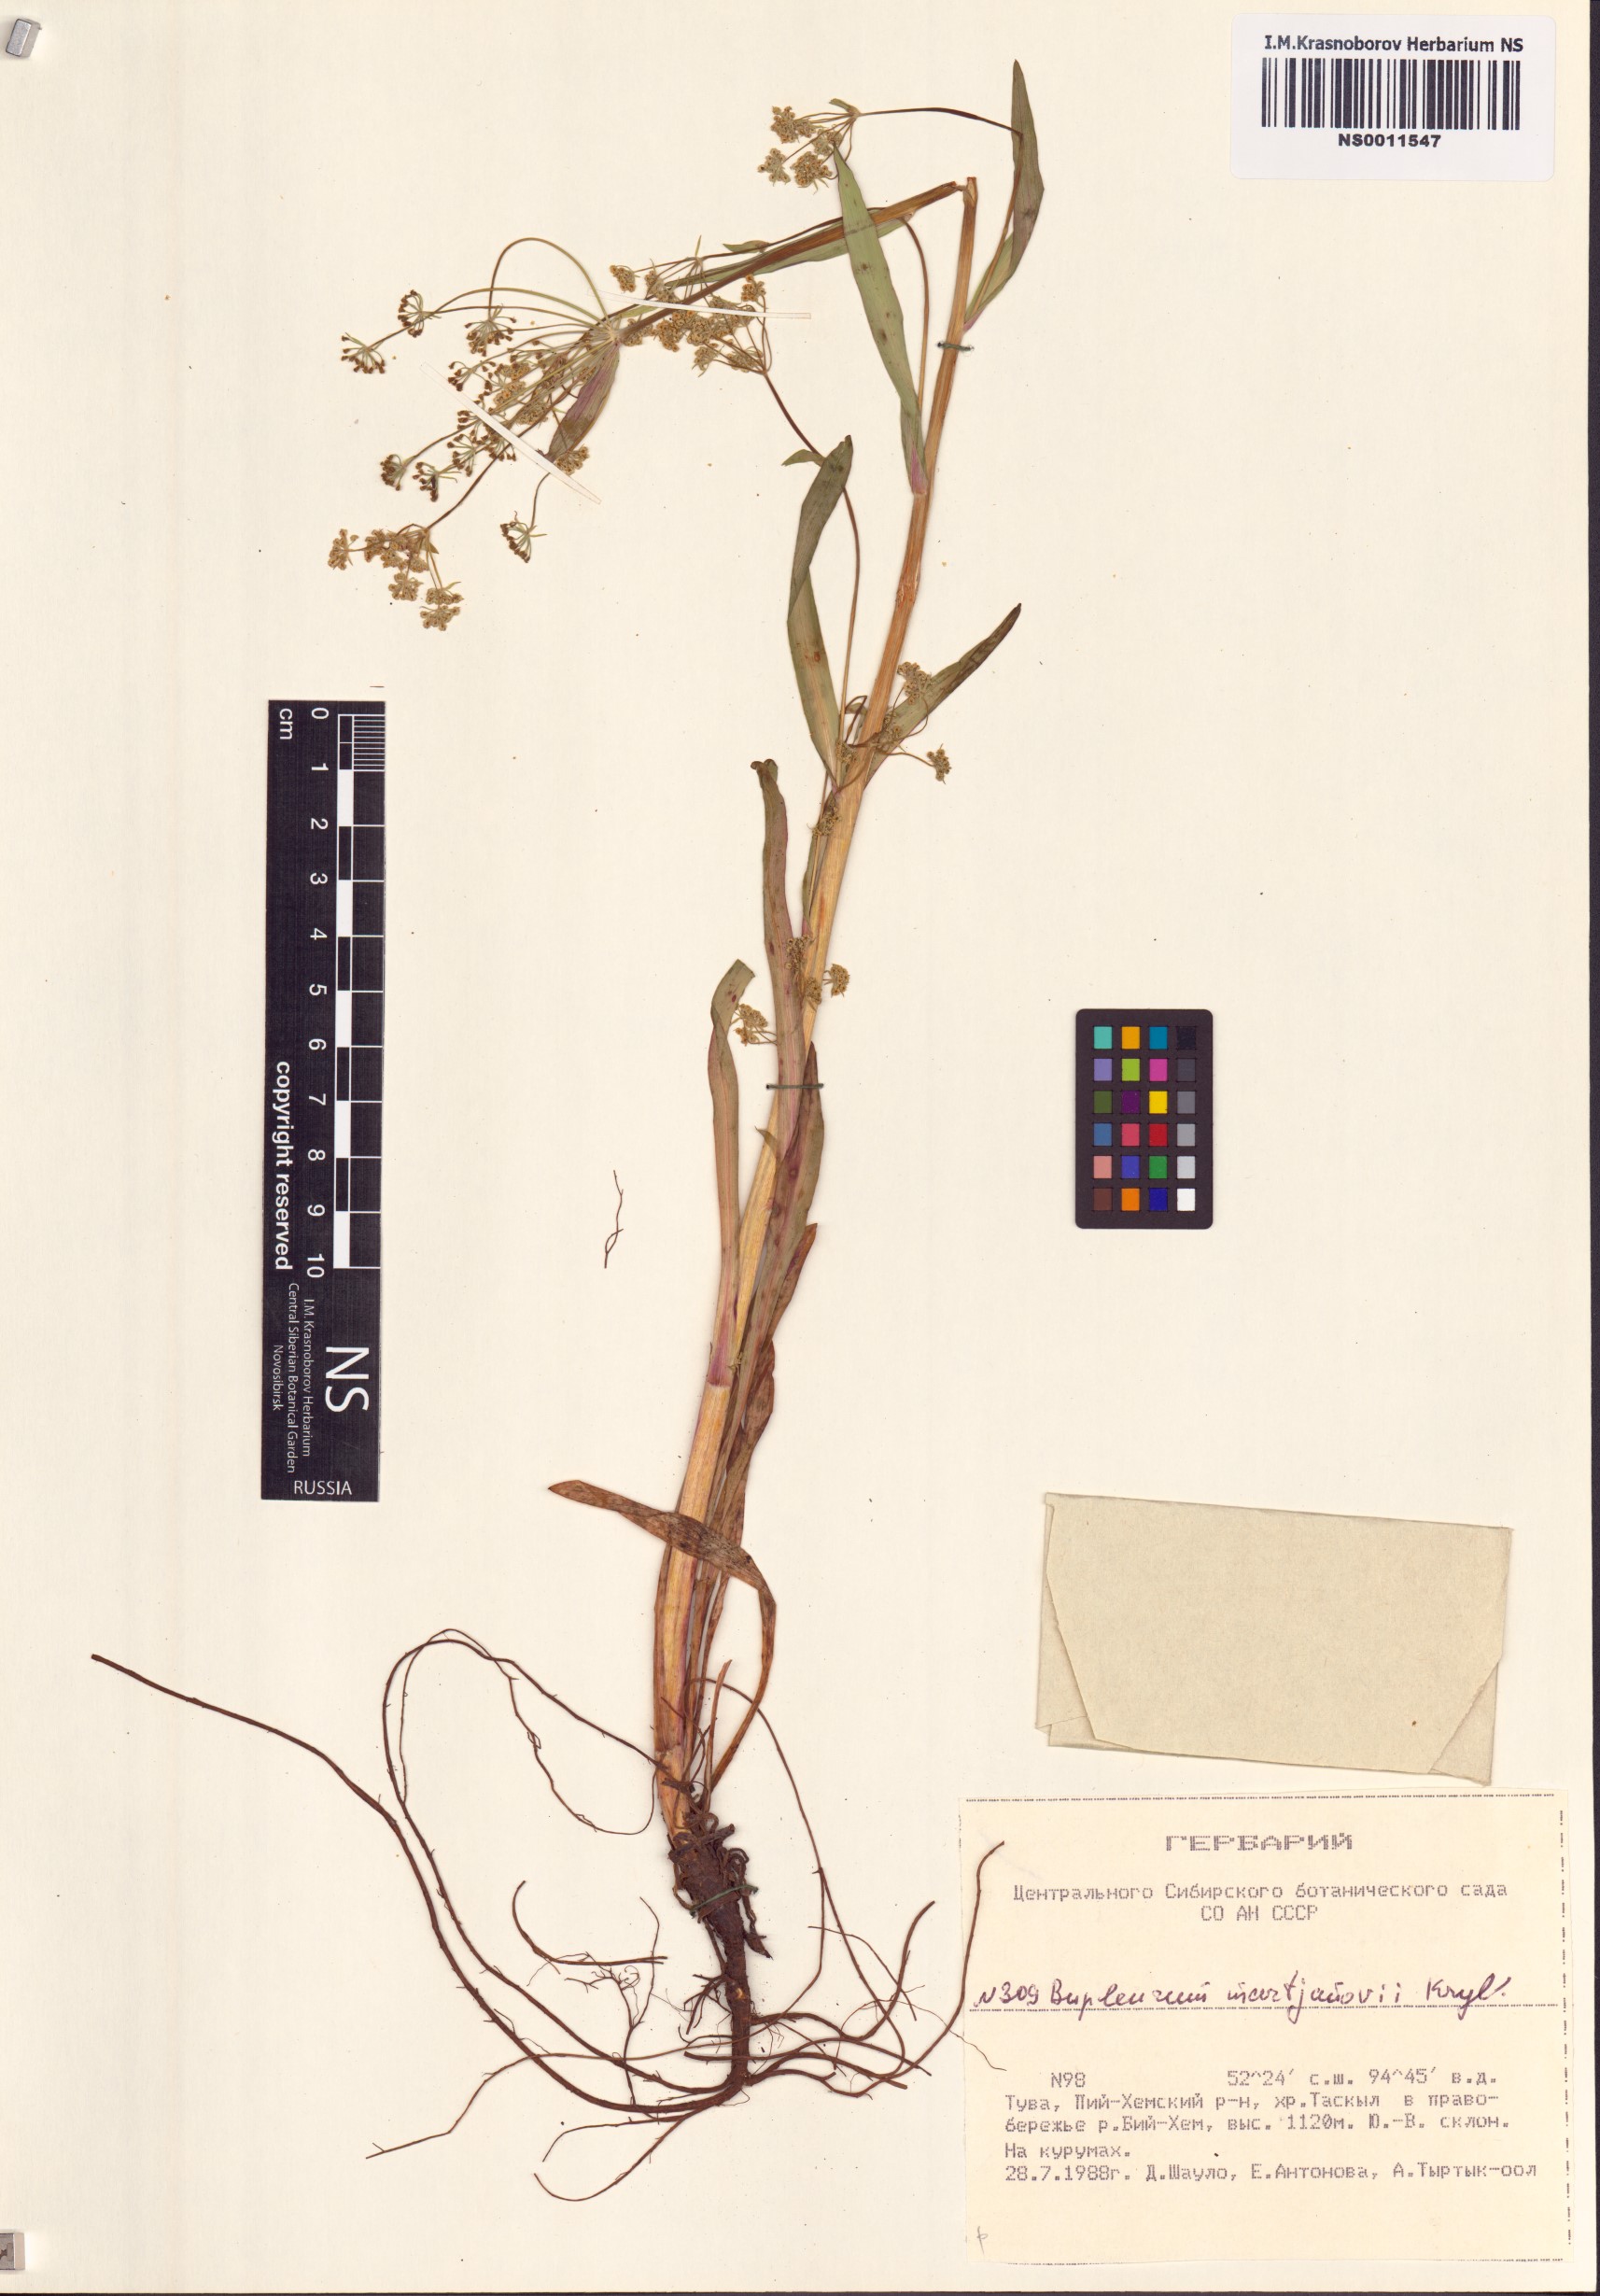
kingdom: Plantae
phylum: Tracheophyta
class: Magnoliopsida
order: Apiales
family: Apiaceae
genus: Bupleurum
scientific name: Bupleurum martjanovii
